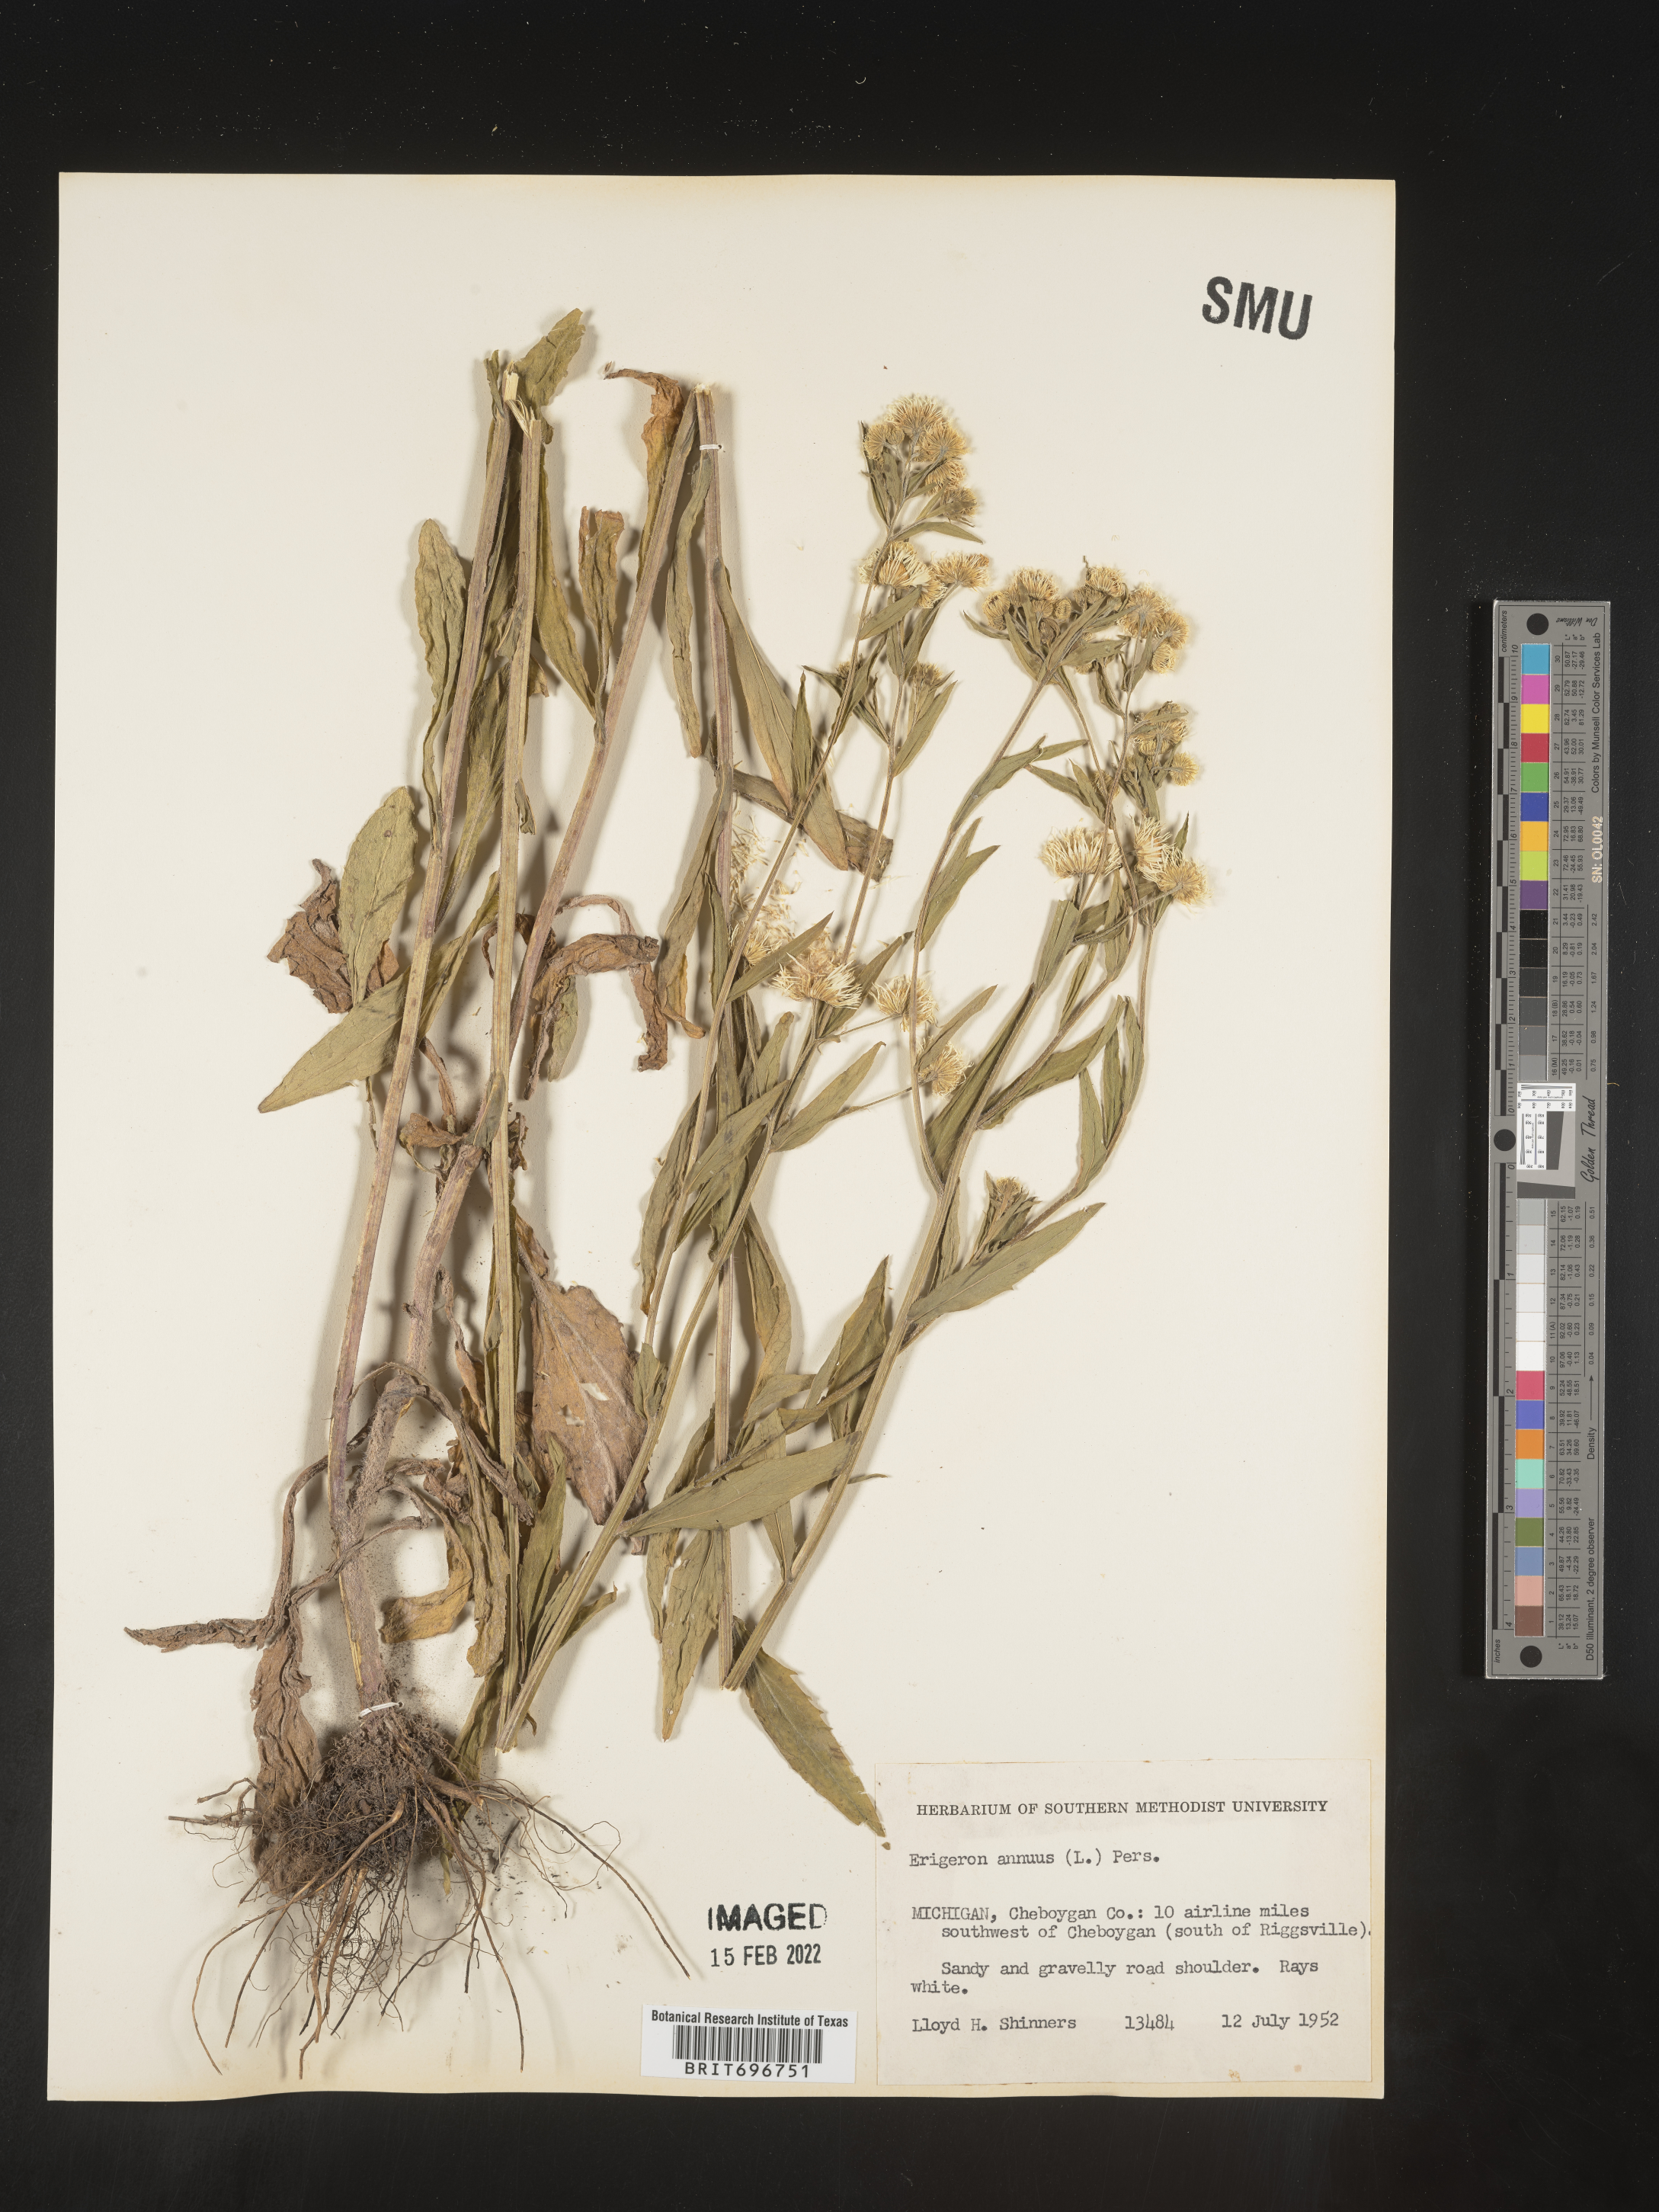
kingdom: Plantae
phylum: Tracheophyta
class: Magnoliopsida
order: Asterales
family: Asteraceae
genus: Erigeron
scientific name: Erigeron annuus
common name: Tall fleabane
